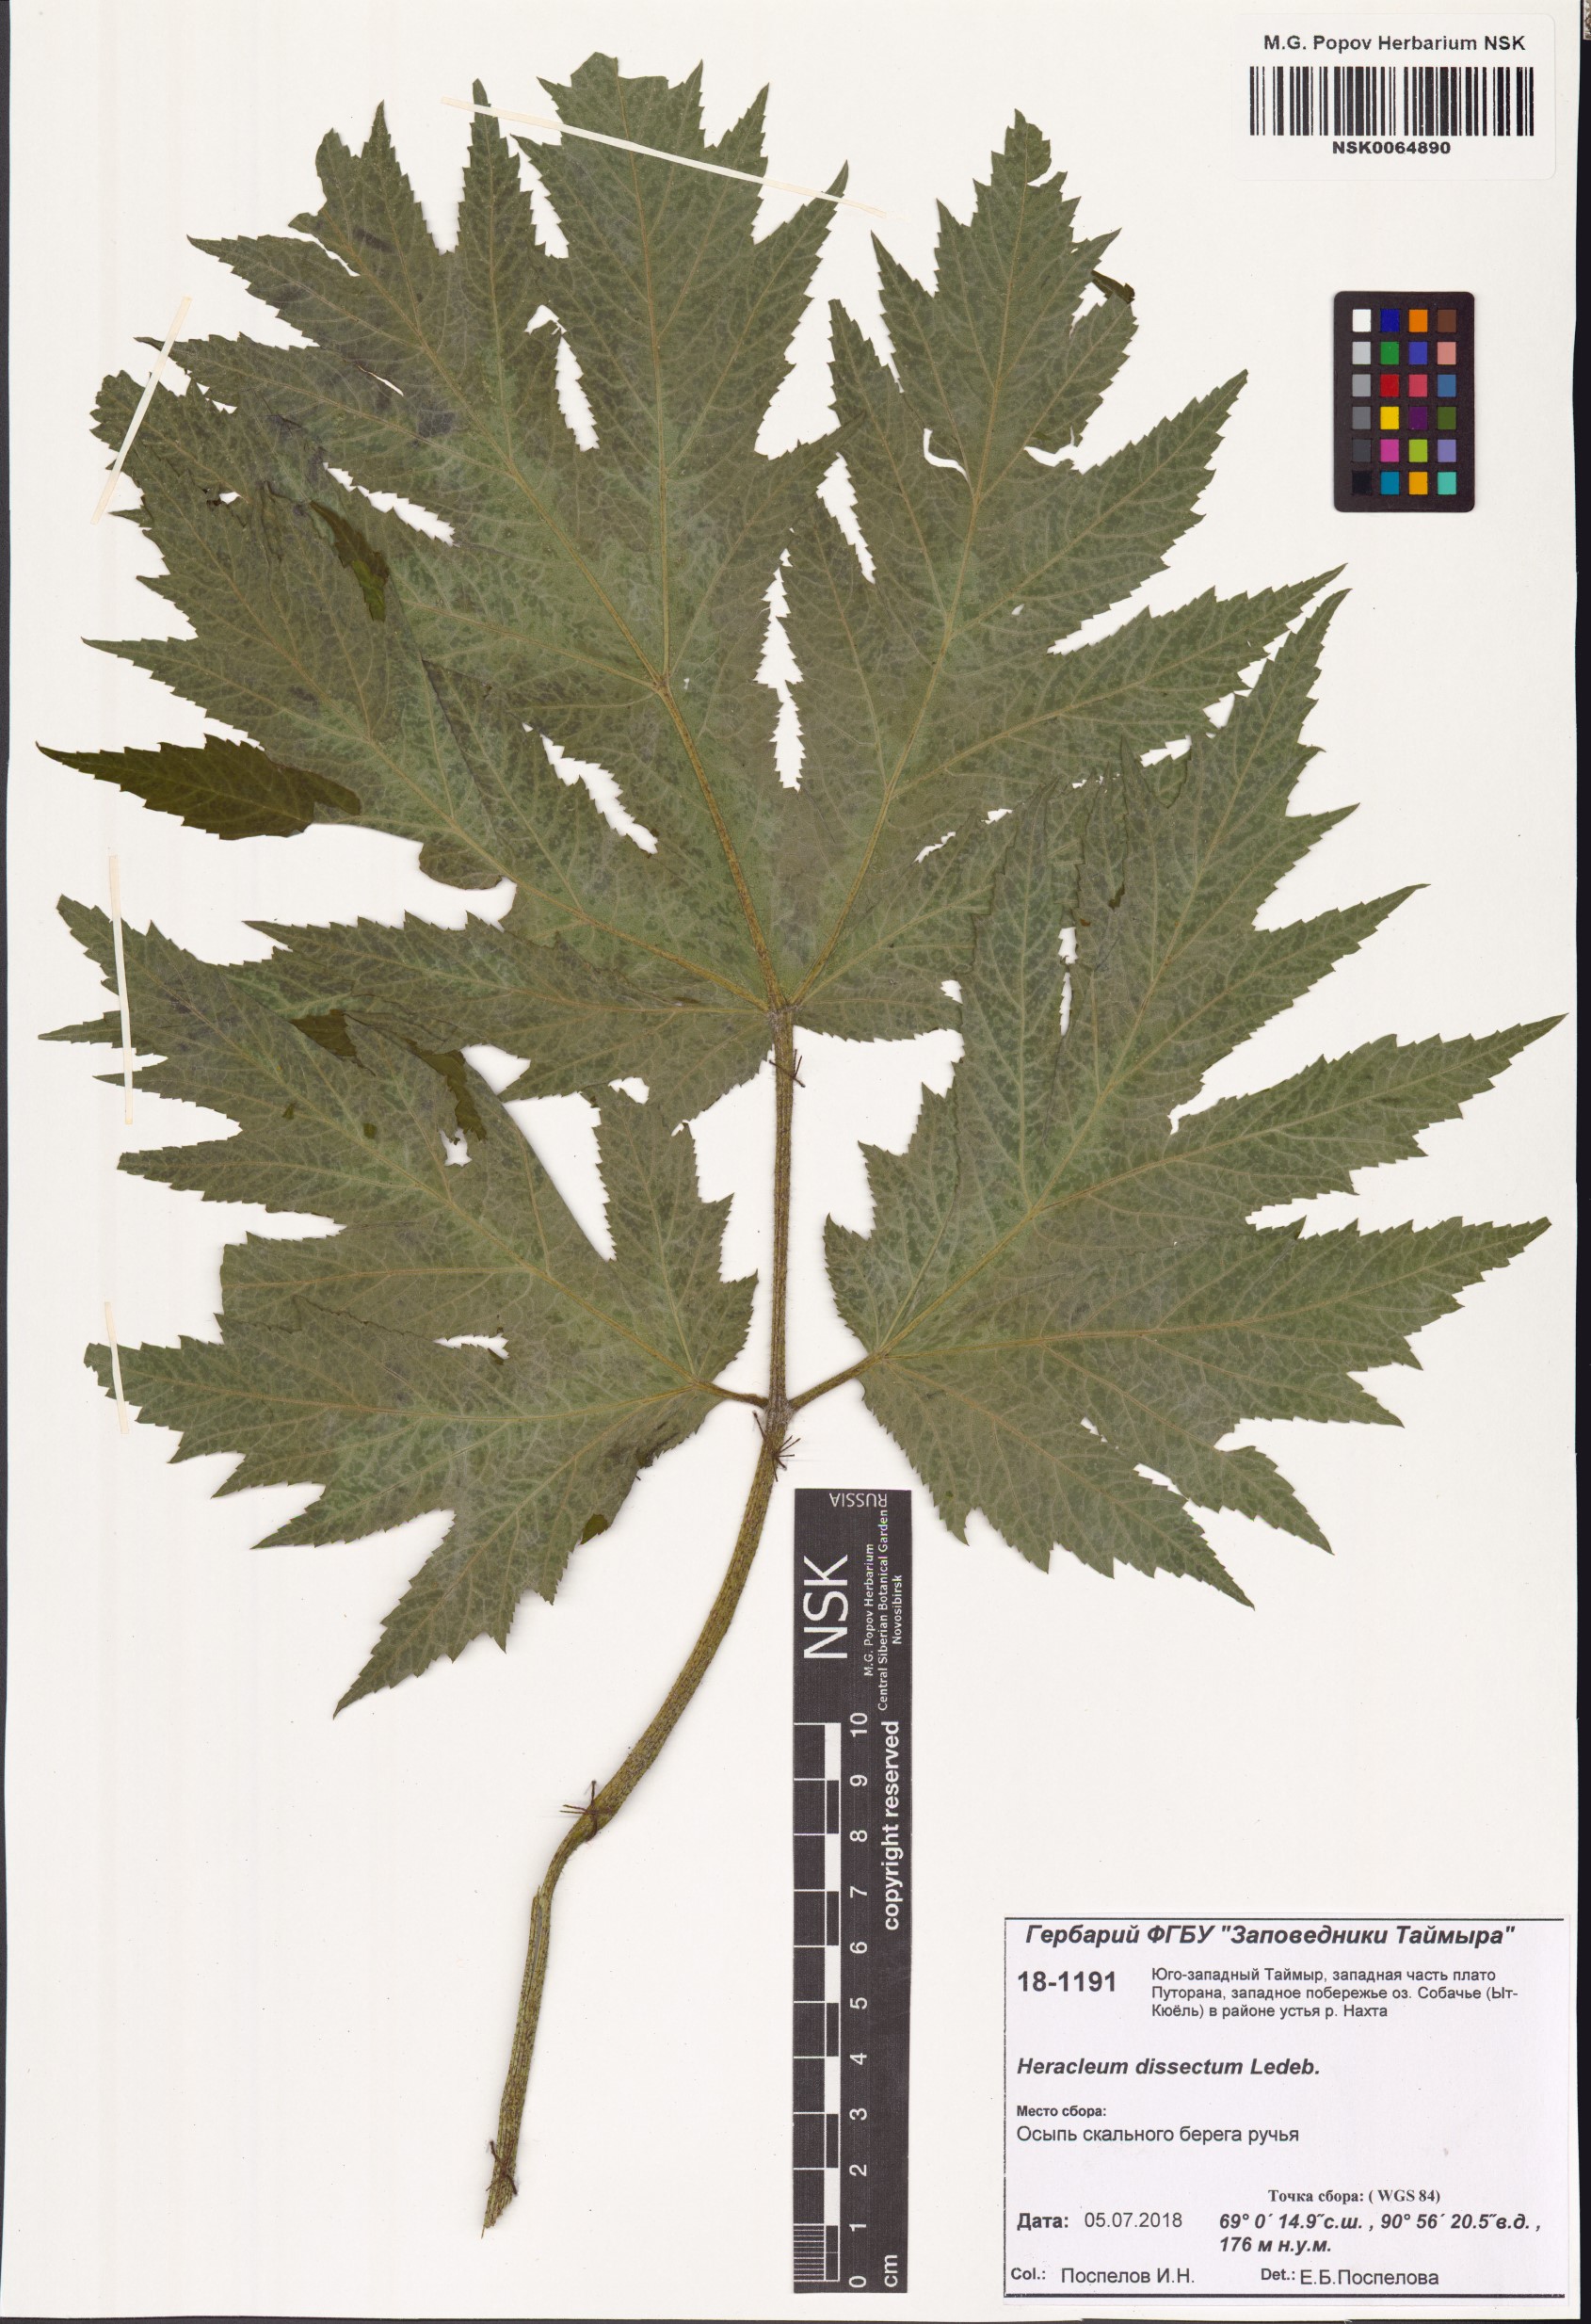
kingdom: Plantae
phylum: Tracheophyta
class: Magnoliopsida
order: Apiales
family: Apiaceae
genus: Heracleum
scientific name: Heracleum dissectum
